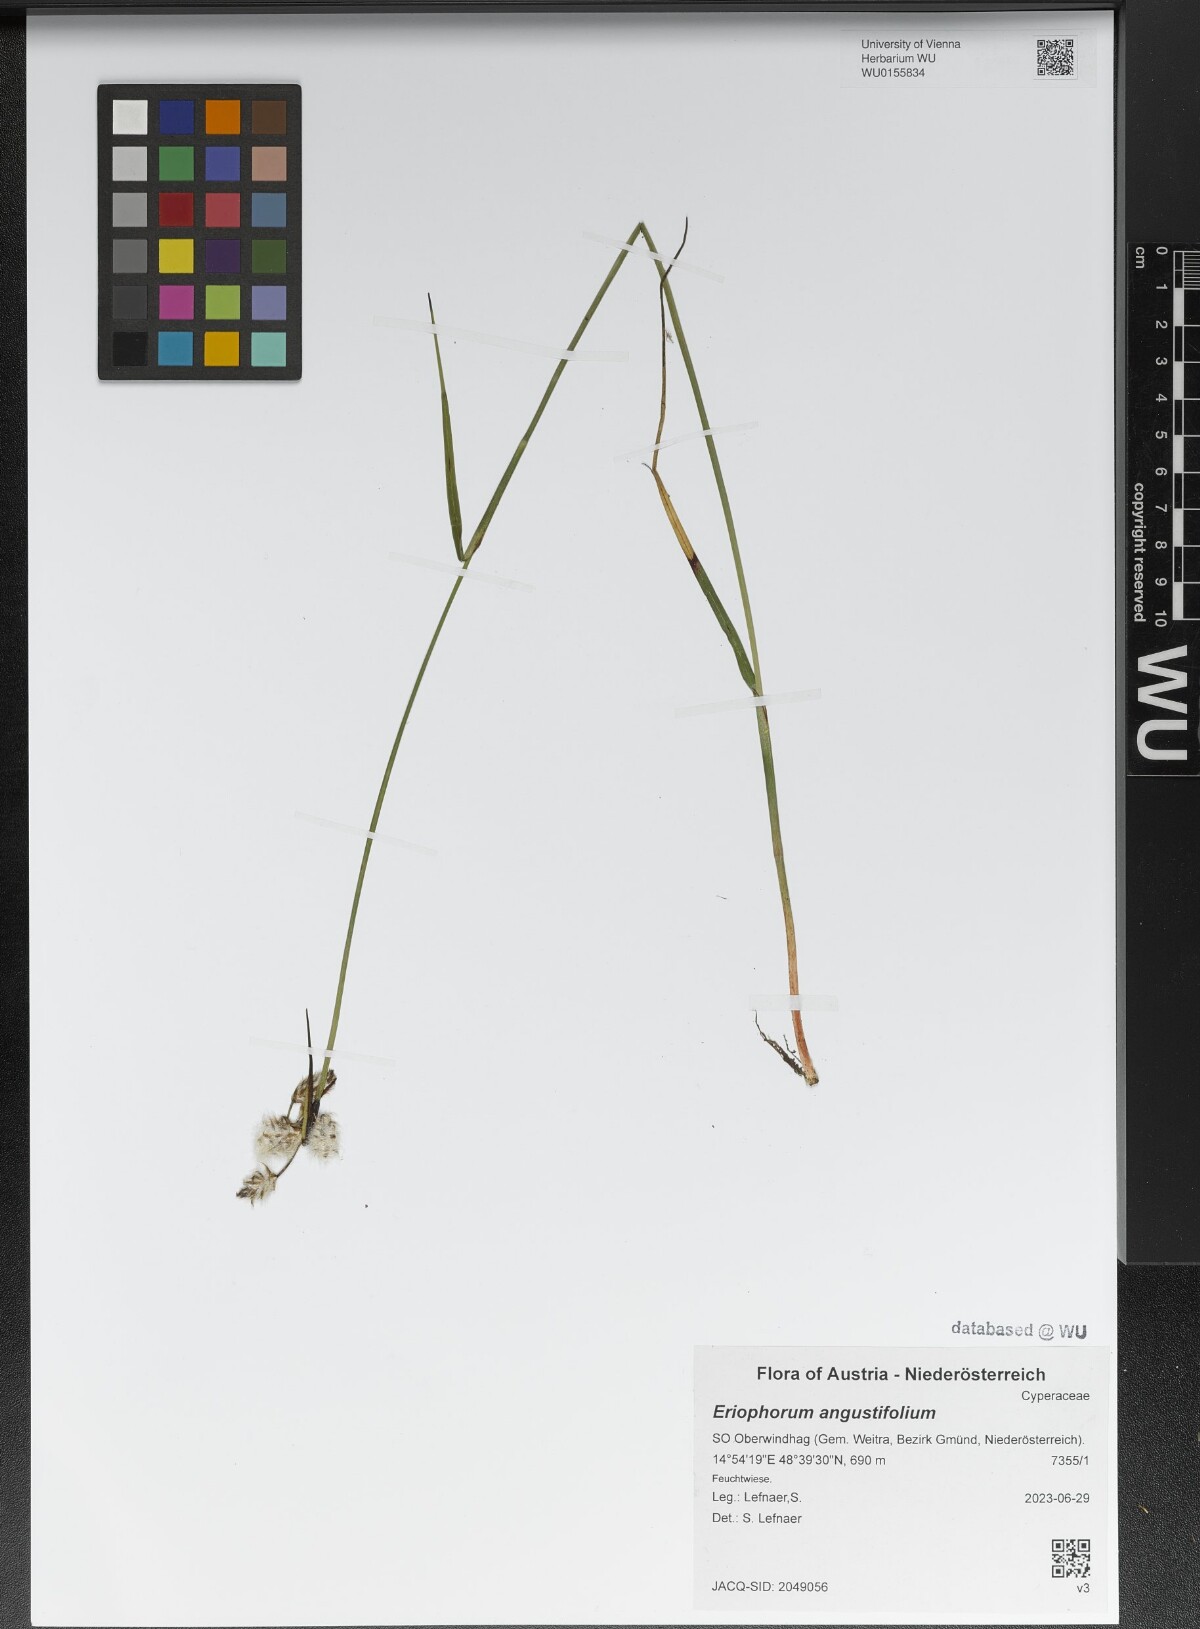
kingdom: Plantae
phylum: Tracheophyta
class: Liliopsida
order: Poales
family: Cyperaceae
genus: Eriophorum
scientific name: Eriophorum angustifolium
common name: Common cottongrass
